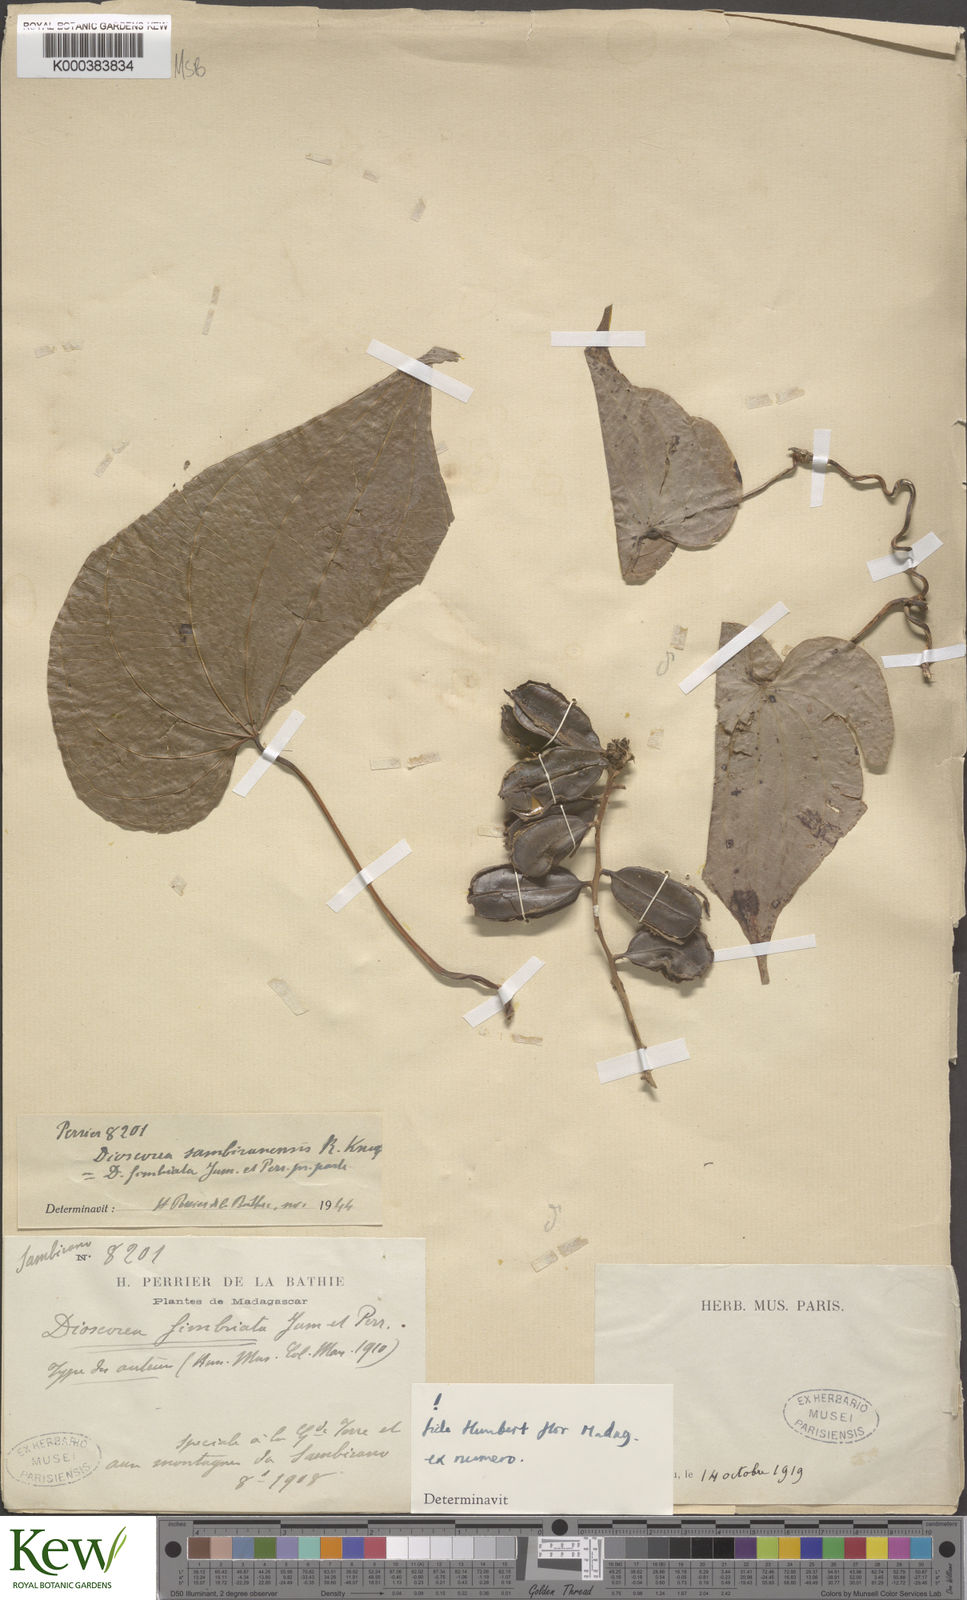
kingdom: Plantae
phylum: Tracheophyta
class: Liliopsida
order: Dioscoreales
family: Dioscoreaceae
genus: Dioscorea
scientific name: Dioscorea sambiranensis
